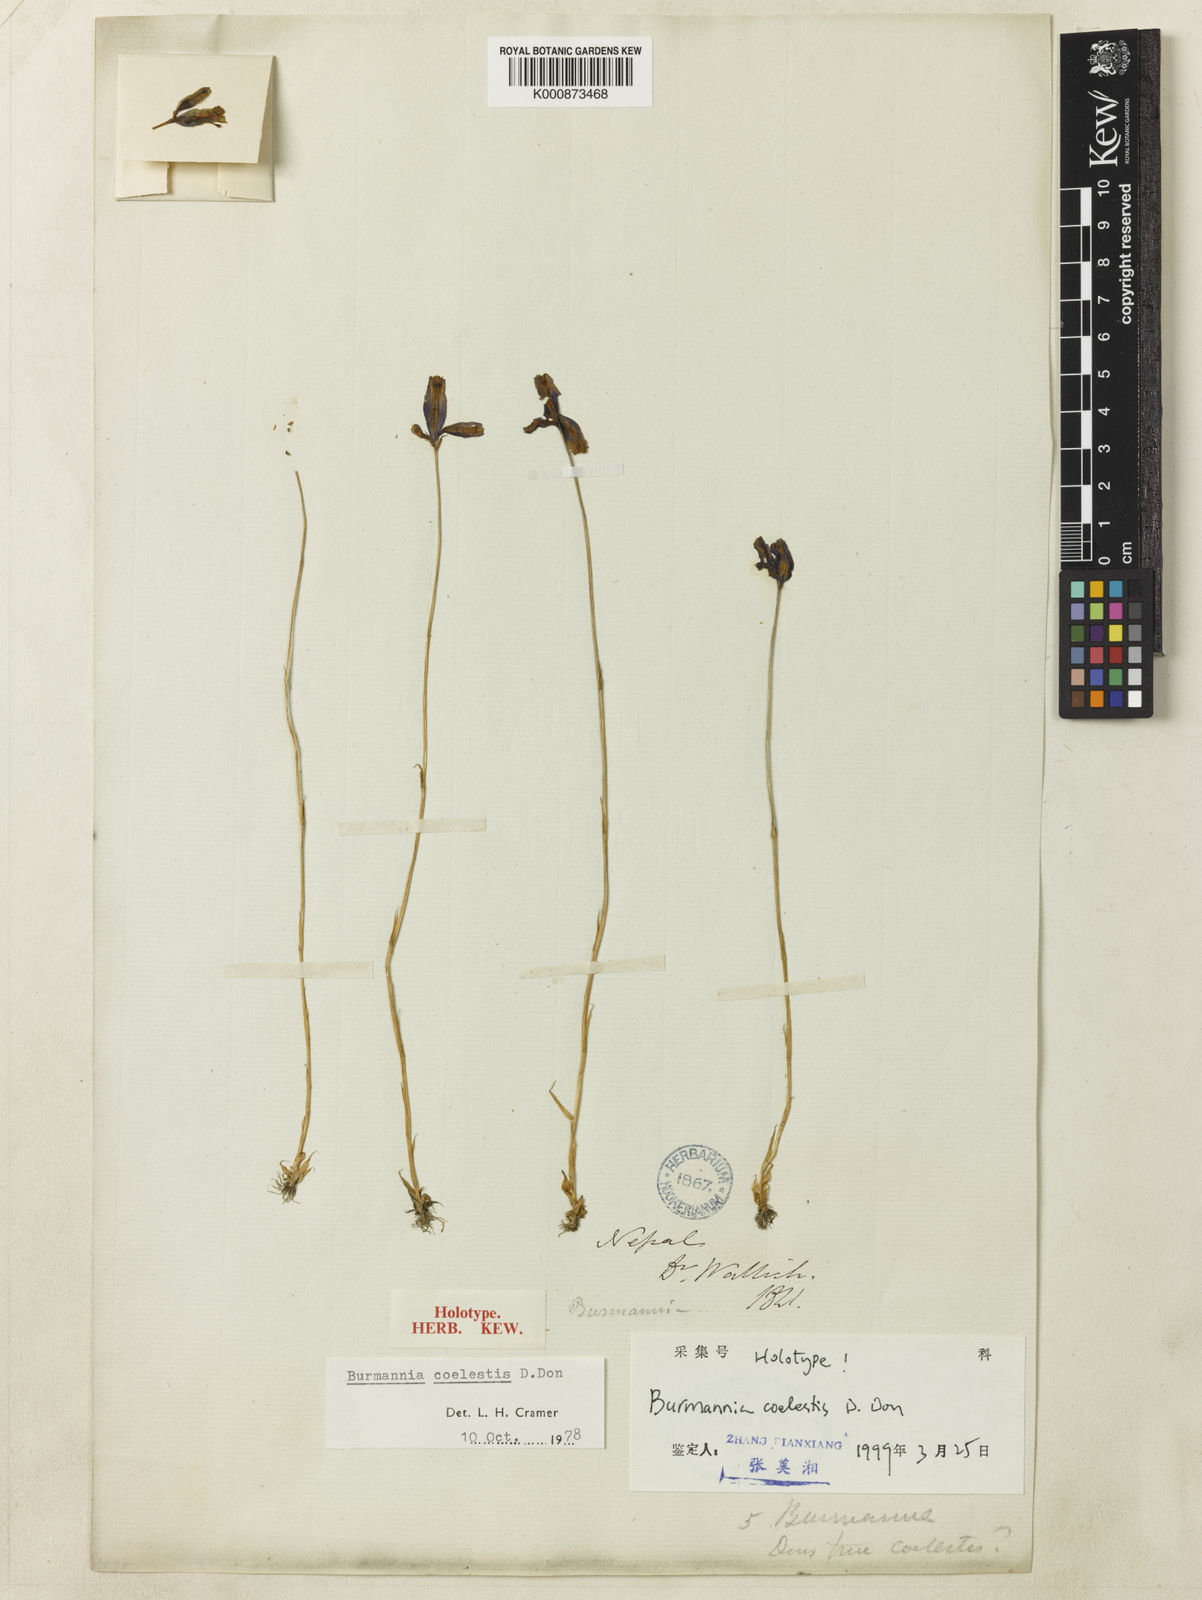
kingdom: Plantae
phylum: Tracheophyta
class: Liliopsida
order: Dioscoreales
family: Burmanniaceae
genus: Burmannia
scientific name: Burmannia coelestis
